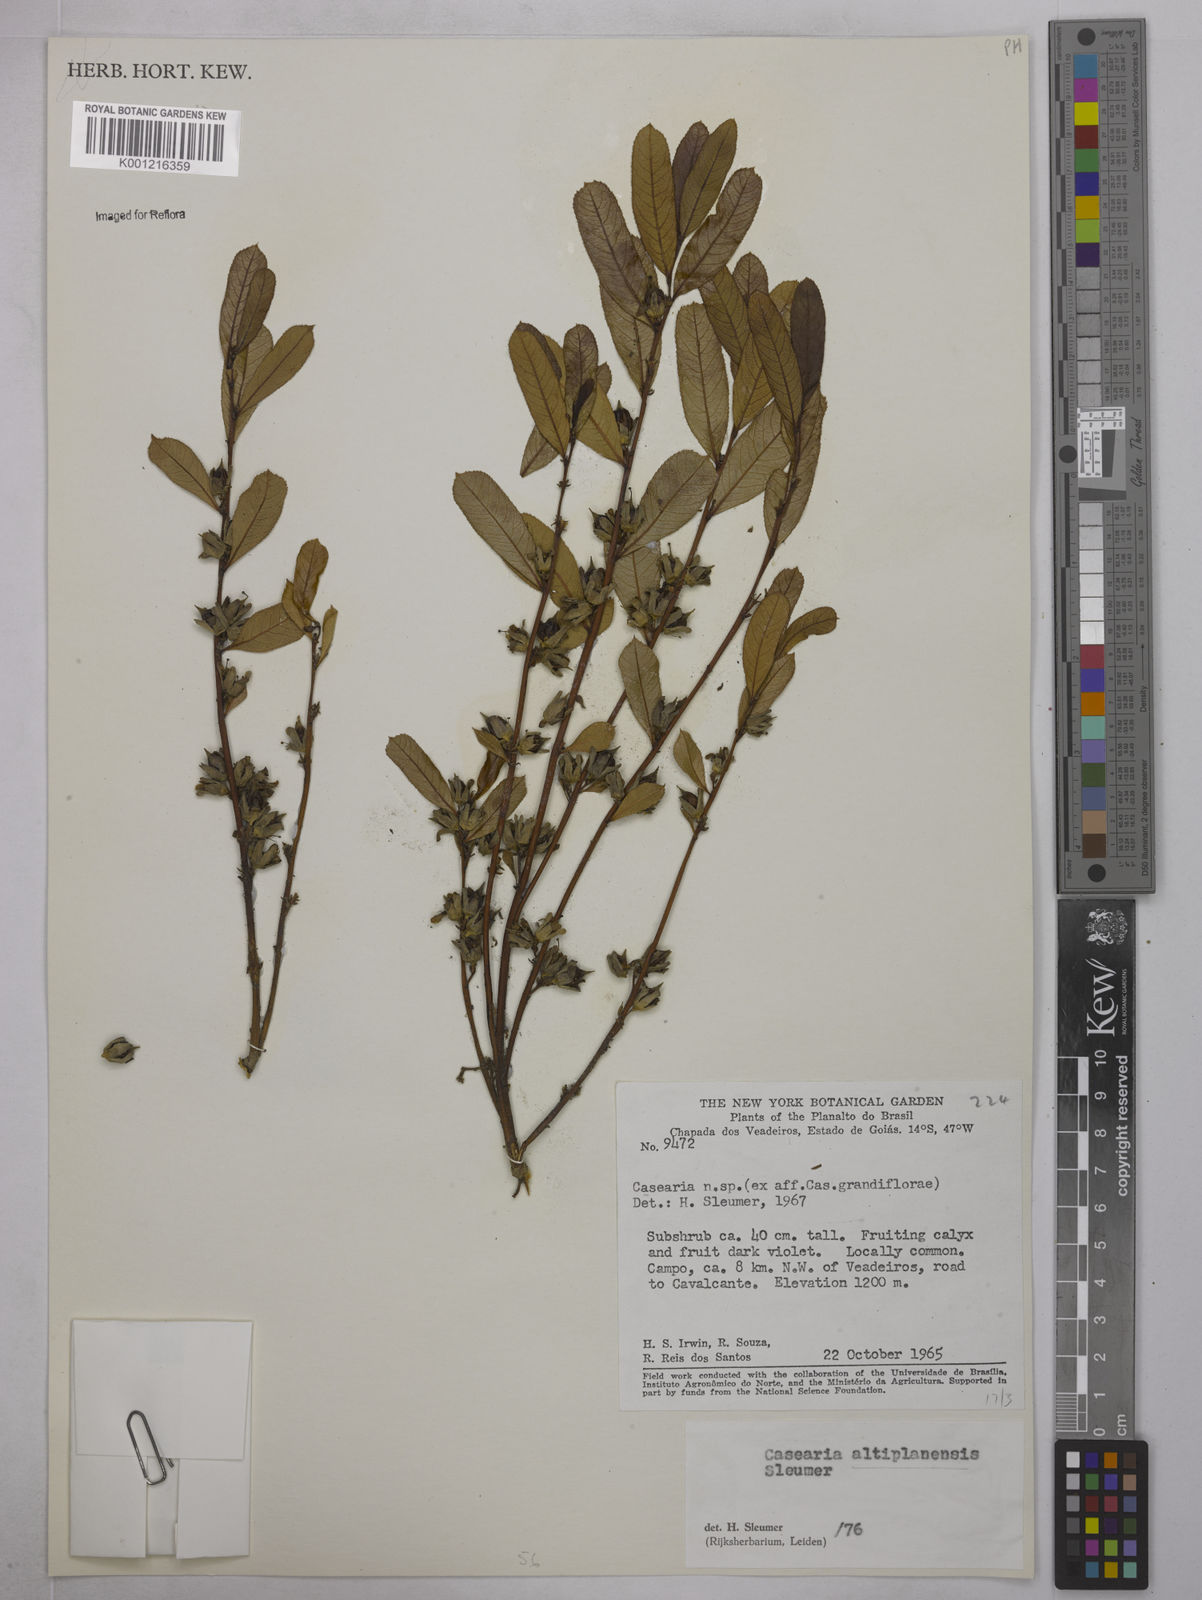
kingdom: Plantae
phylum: Tracheophyta
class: Magnoliopsida
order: Malpighiales
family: Salicaceae
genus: Casearia
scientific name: Casearia altiplanensis
